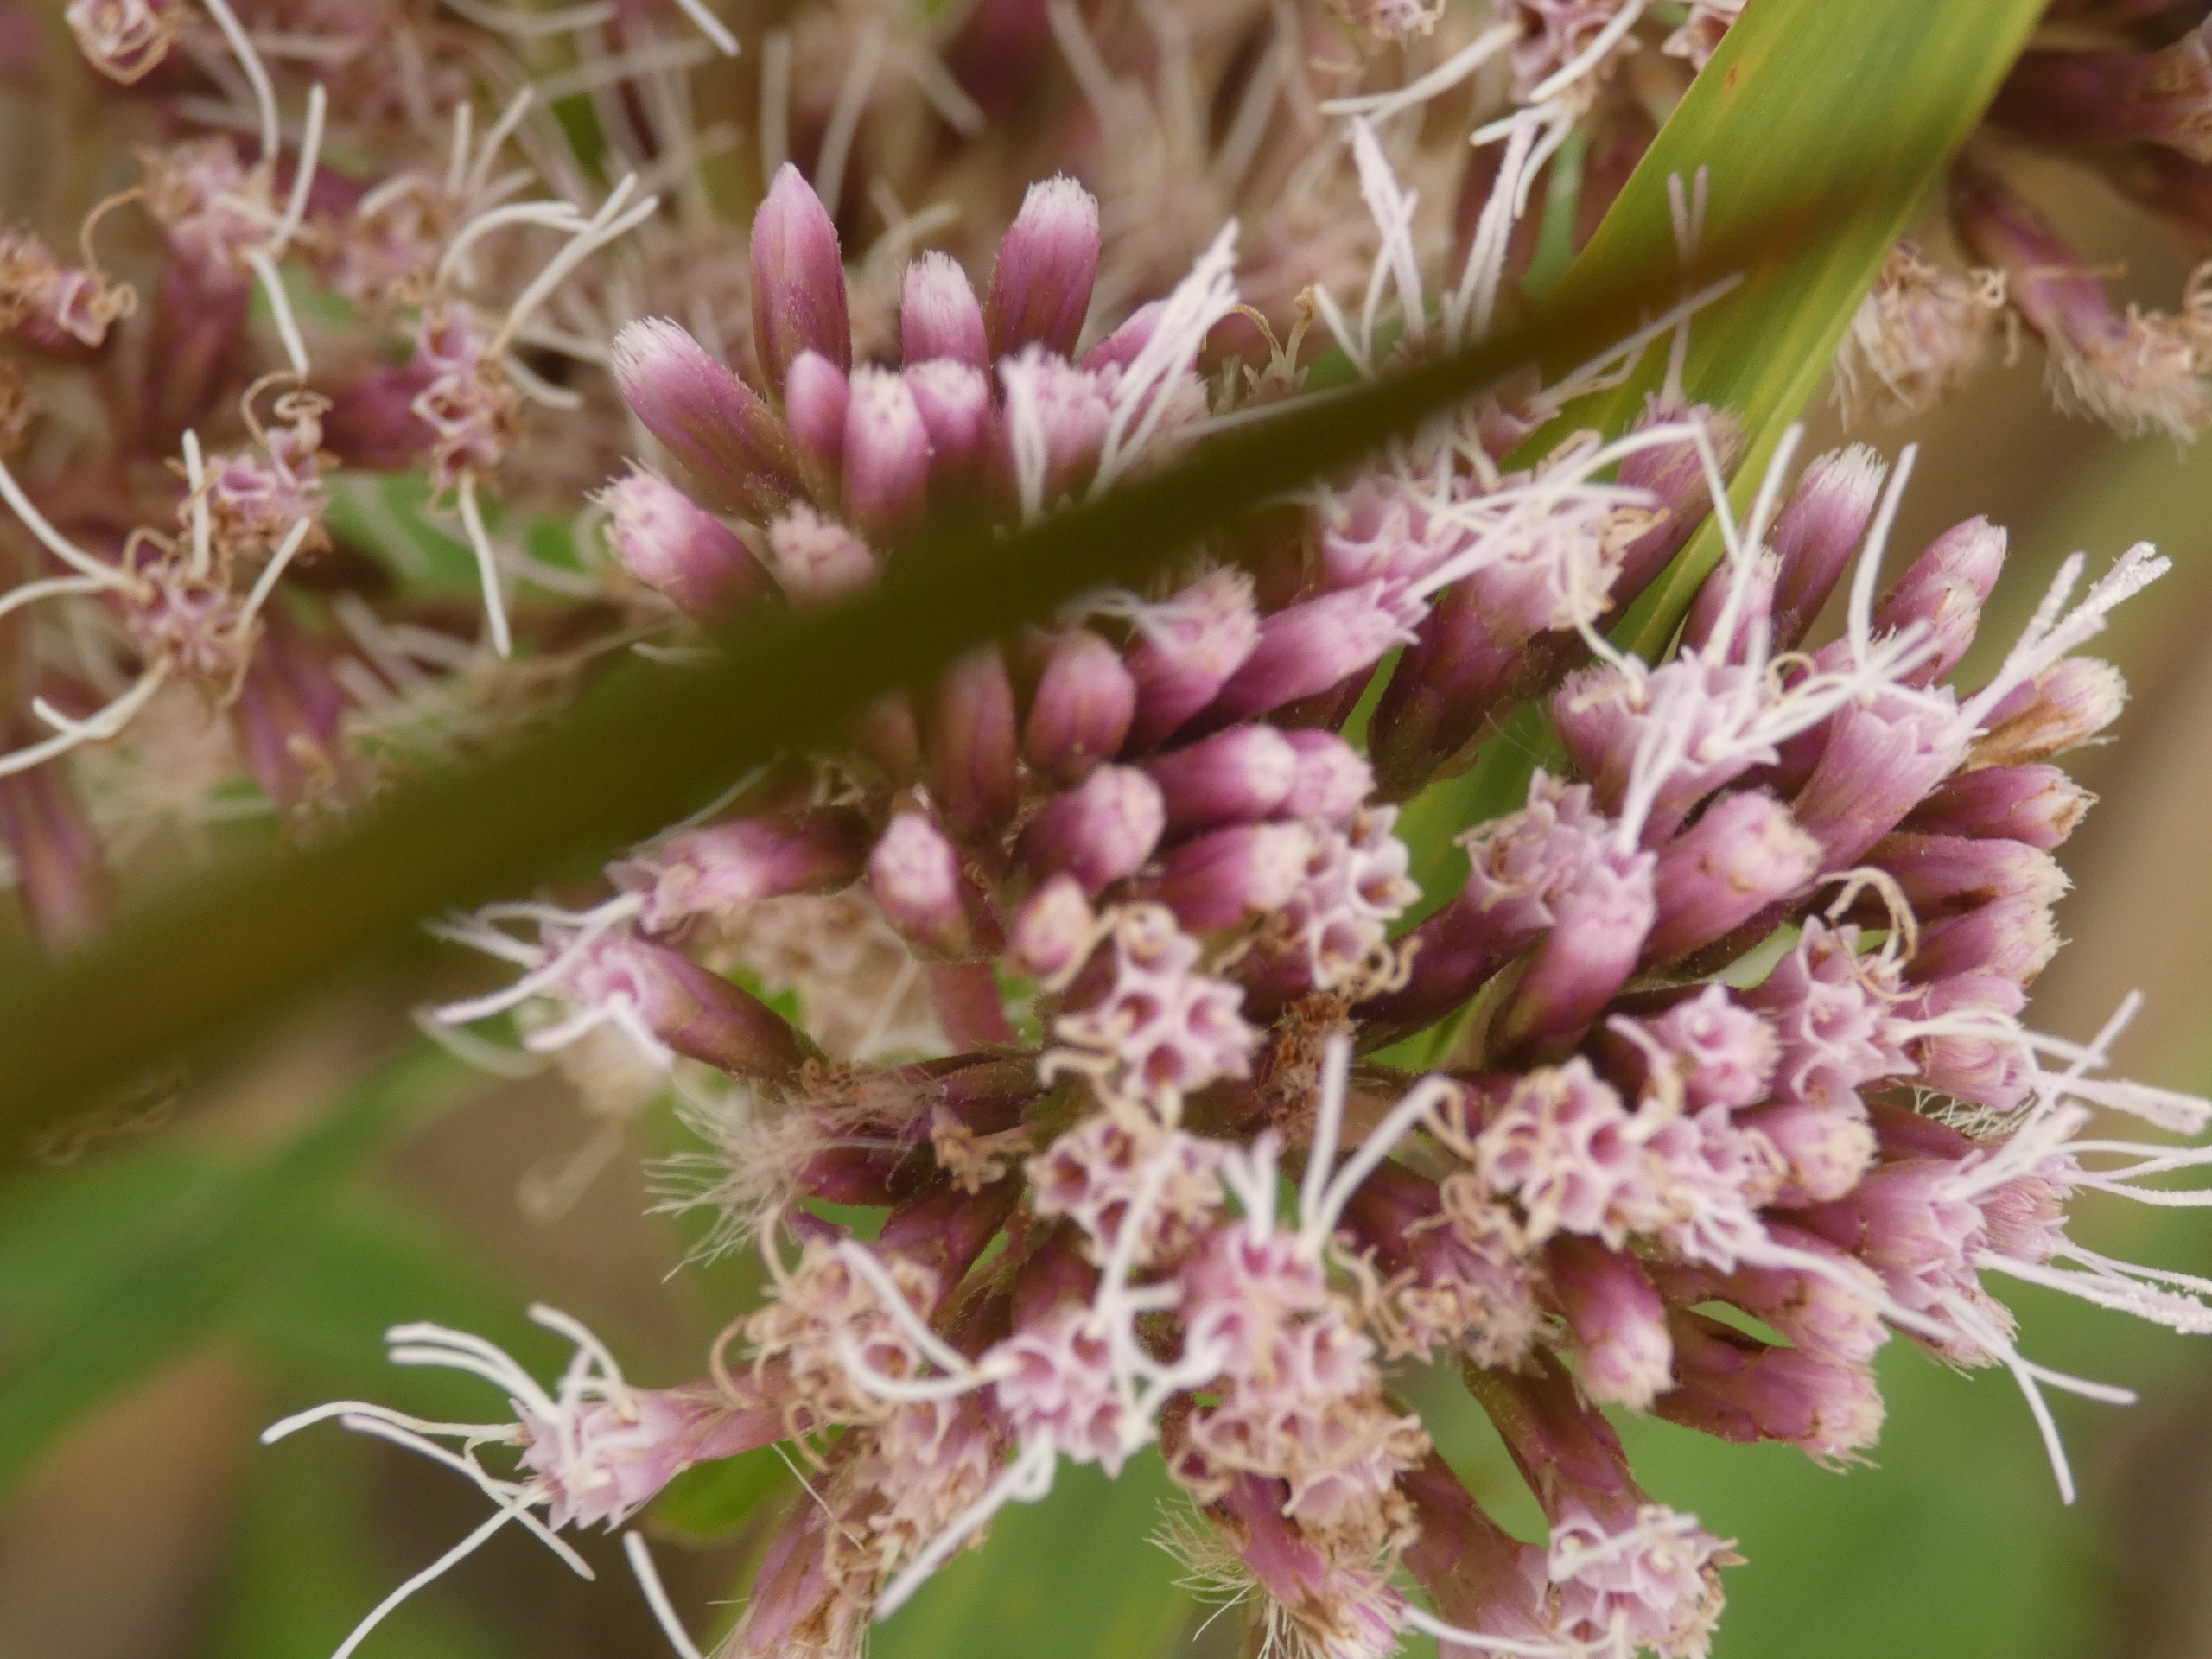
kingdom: Plantae
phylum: Tracheophyta
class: Magnoliopsida
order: Asterales
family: Asteraceae
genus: Eupatorium
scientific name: Eupatorium cannabinum
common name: Hjortetrøst
